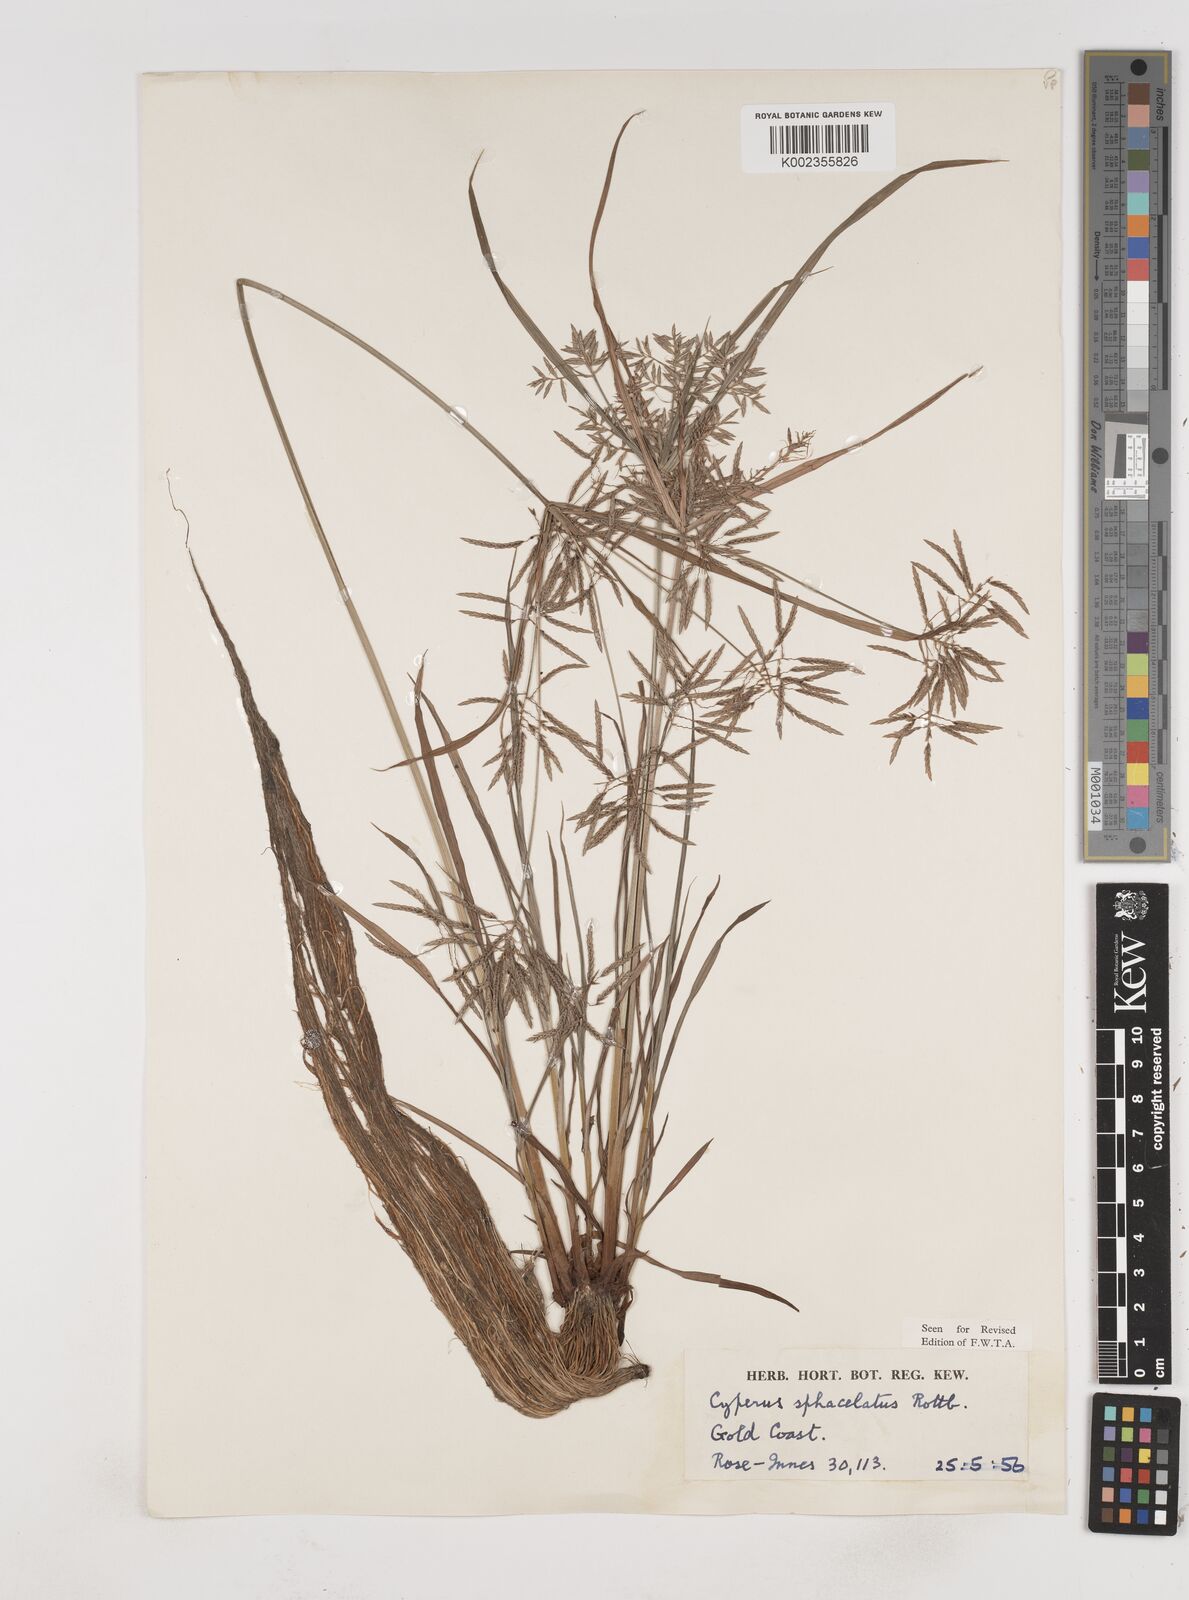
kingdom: Plantae
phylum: Tracheophyta
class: Liliopsida
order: Poales
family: Cyperaceae
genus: Cyperus
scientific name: Cyperus sphacelatus
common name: Roadside flatsedge
